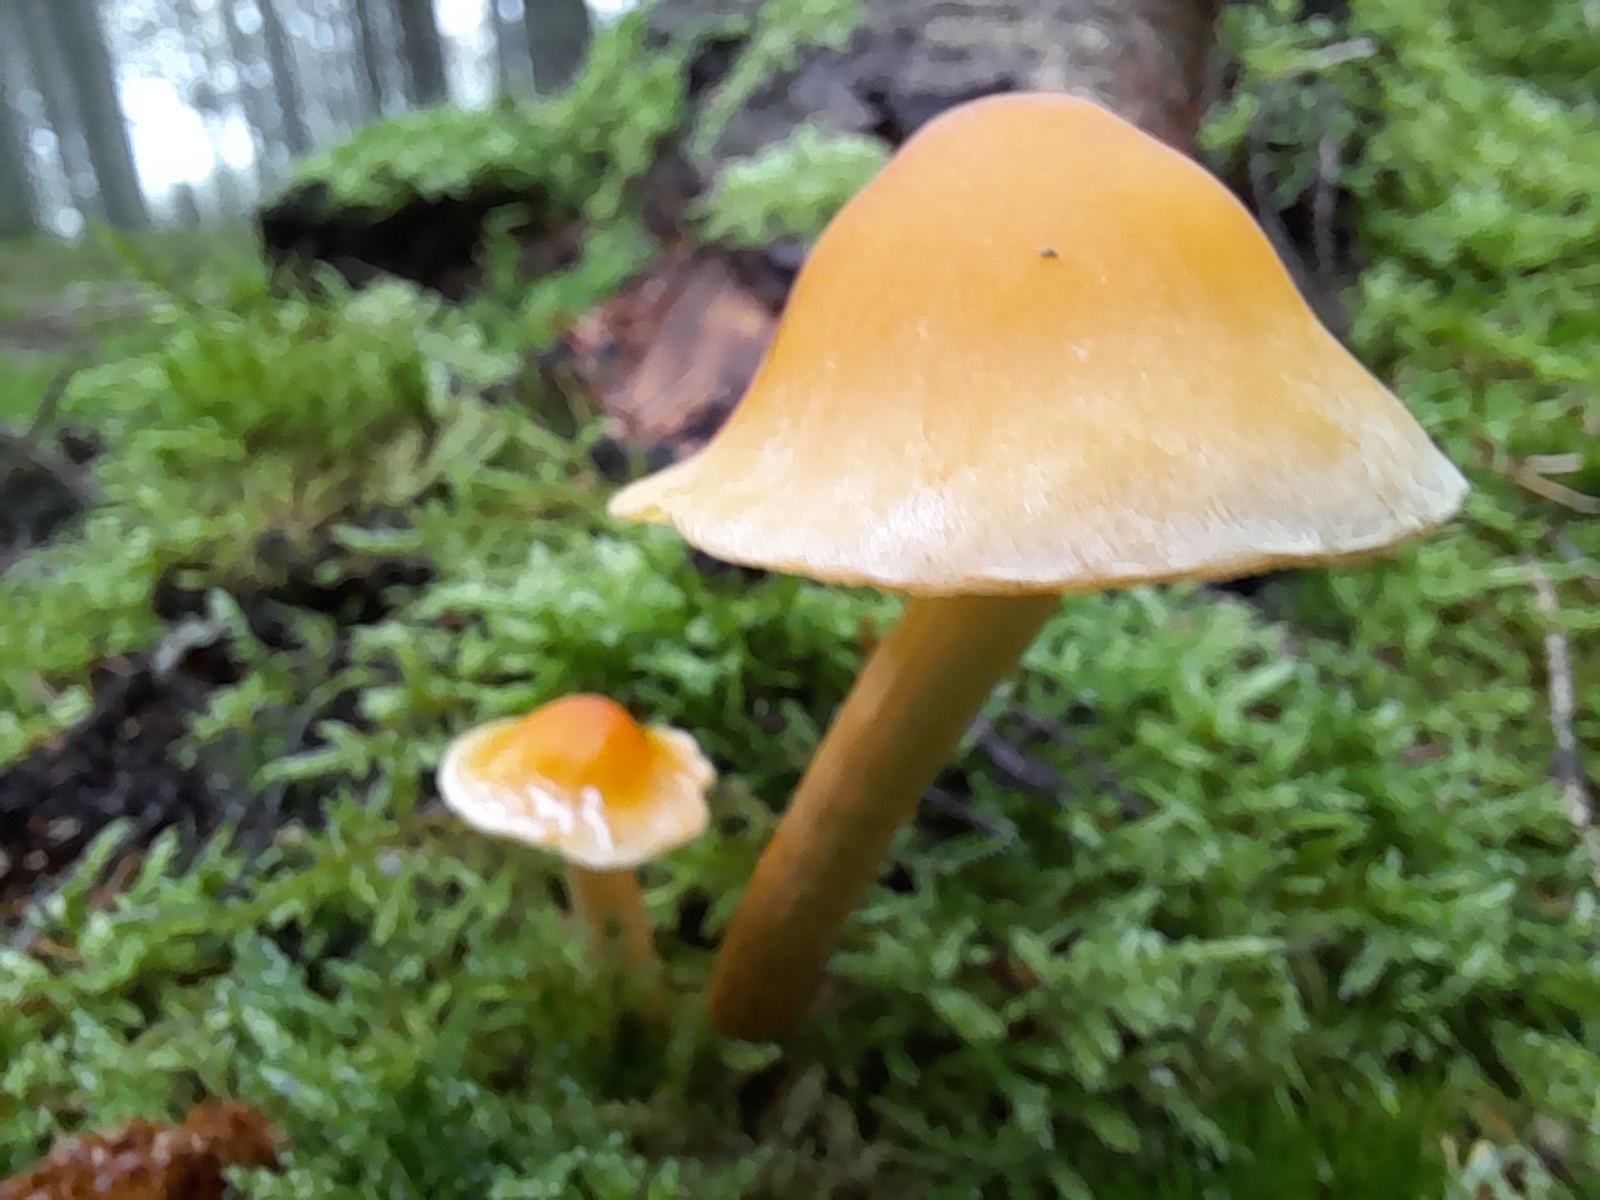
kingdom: Fungi
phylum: Basidiomycota
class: Agaricomycetes
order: Agaricales
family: Strophariaceae
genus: Hypholoma
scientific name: Hypholoma capnoides
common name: gran-svovlhat
